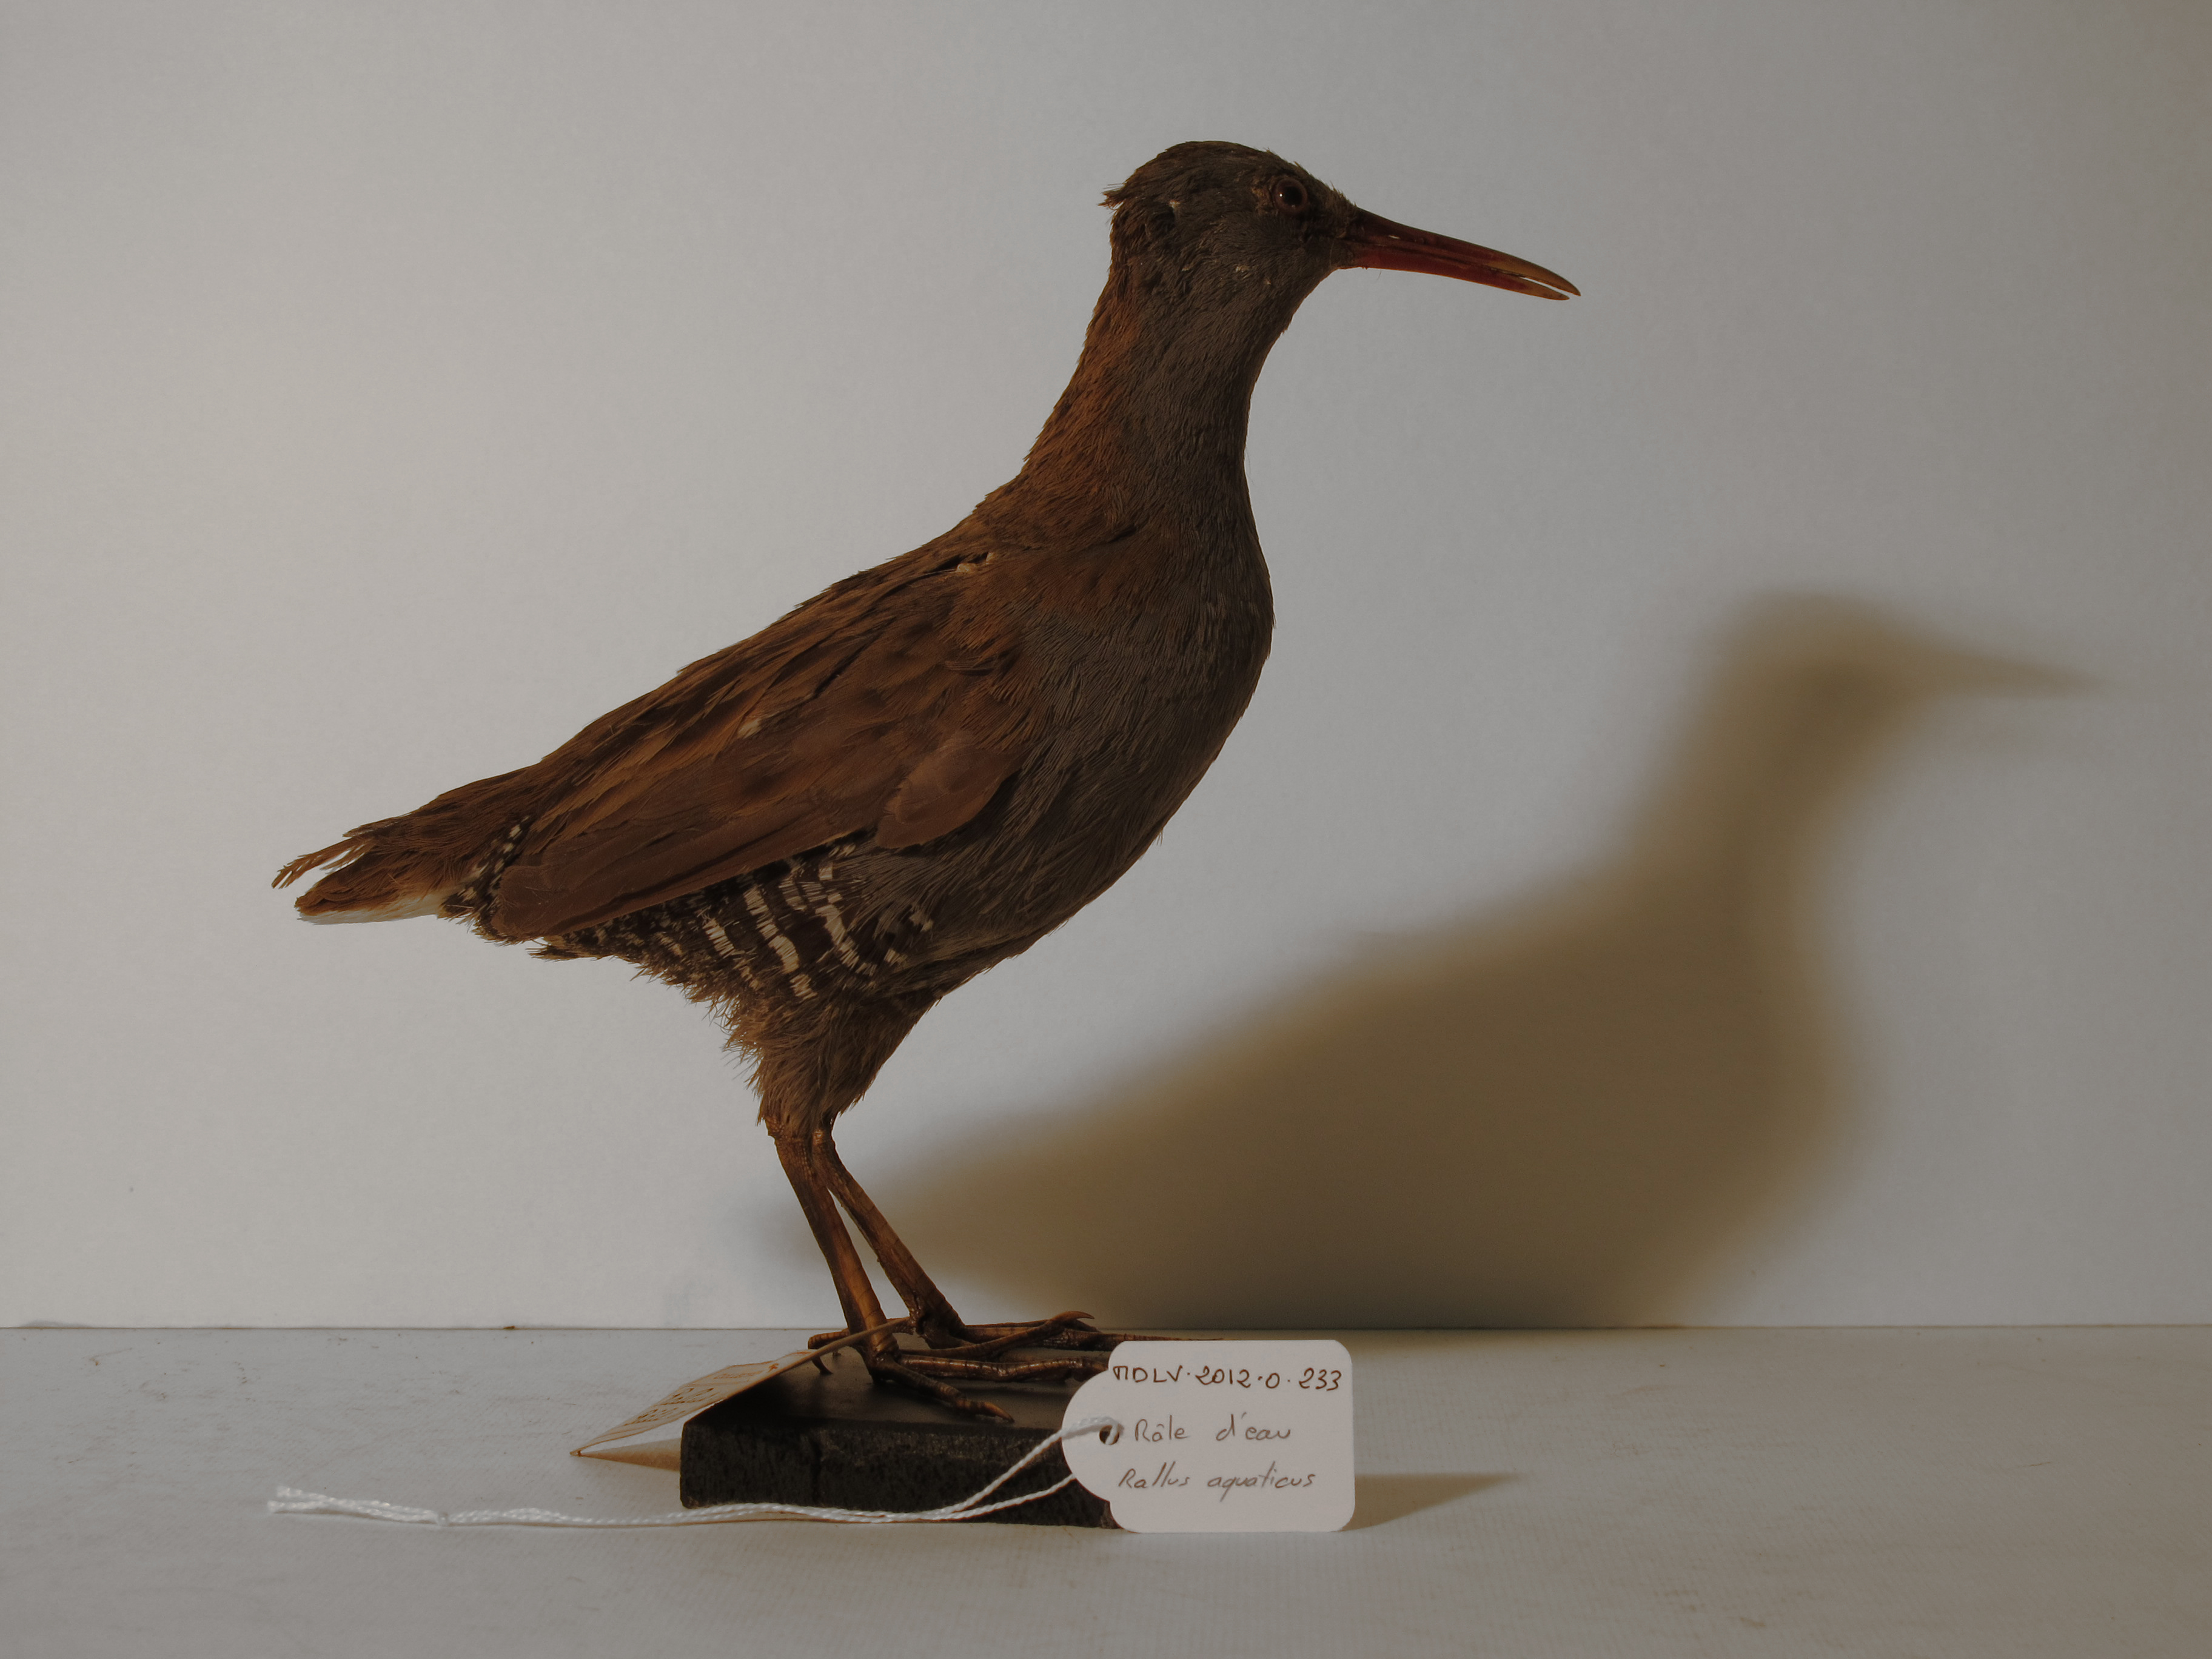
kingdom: Animalia
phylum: Chordata
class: Aves
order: Gruiformes
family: Rallidae
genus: Rallus
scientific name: Rallus aquaticus
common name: Water Rail
